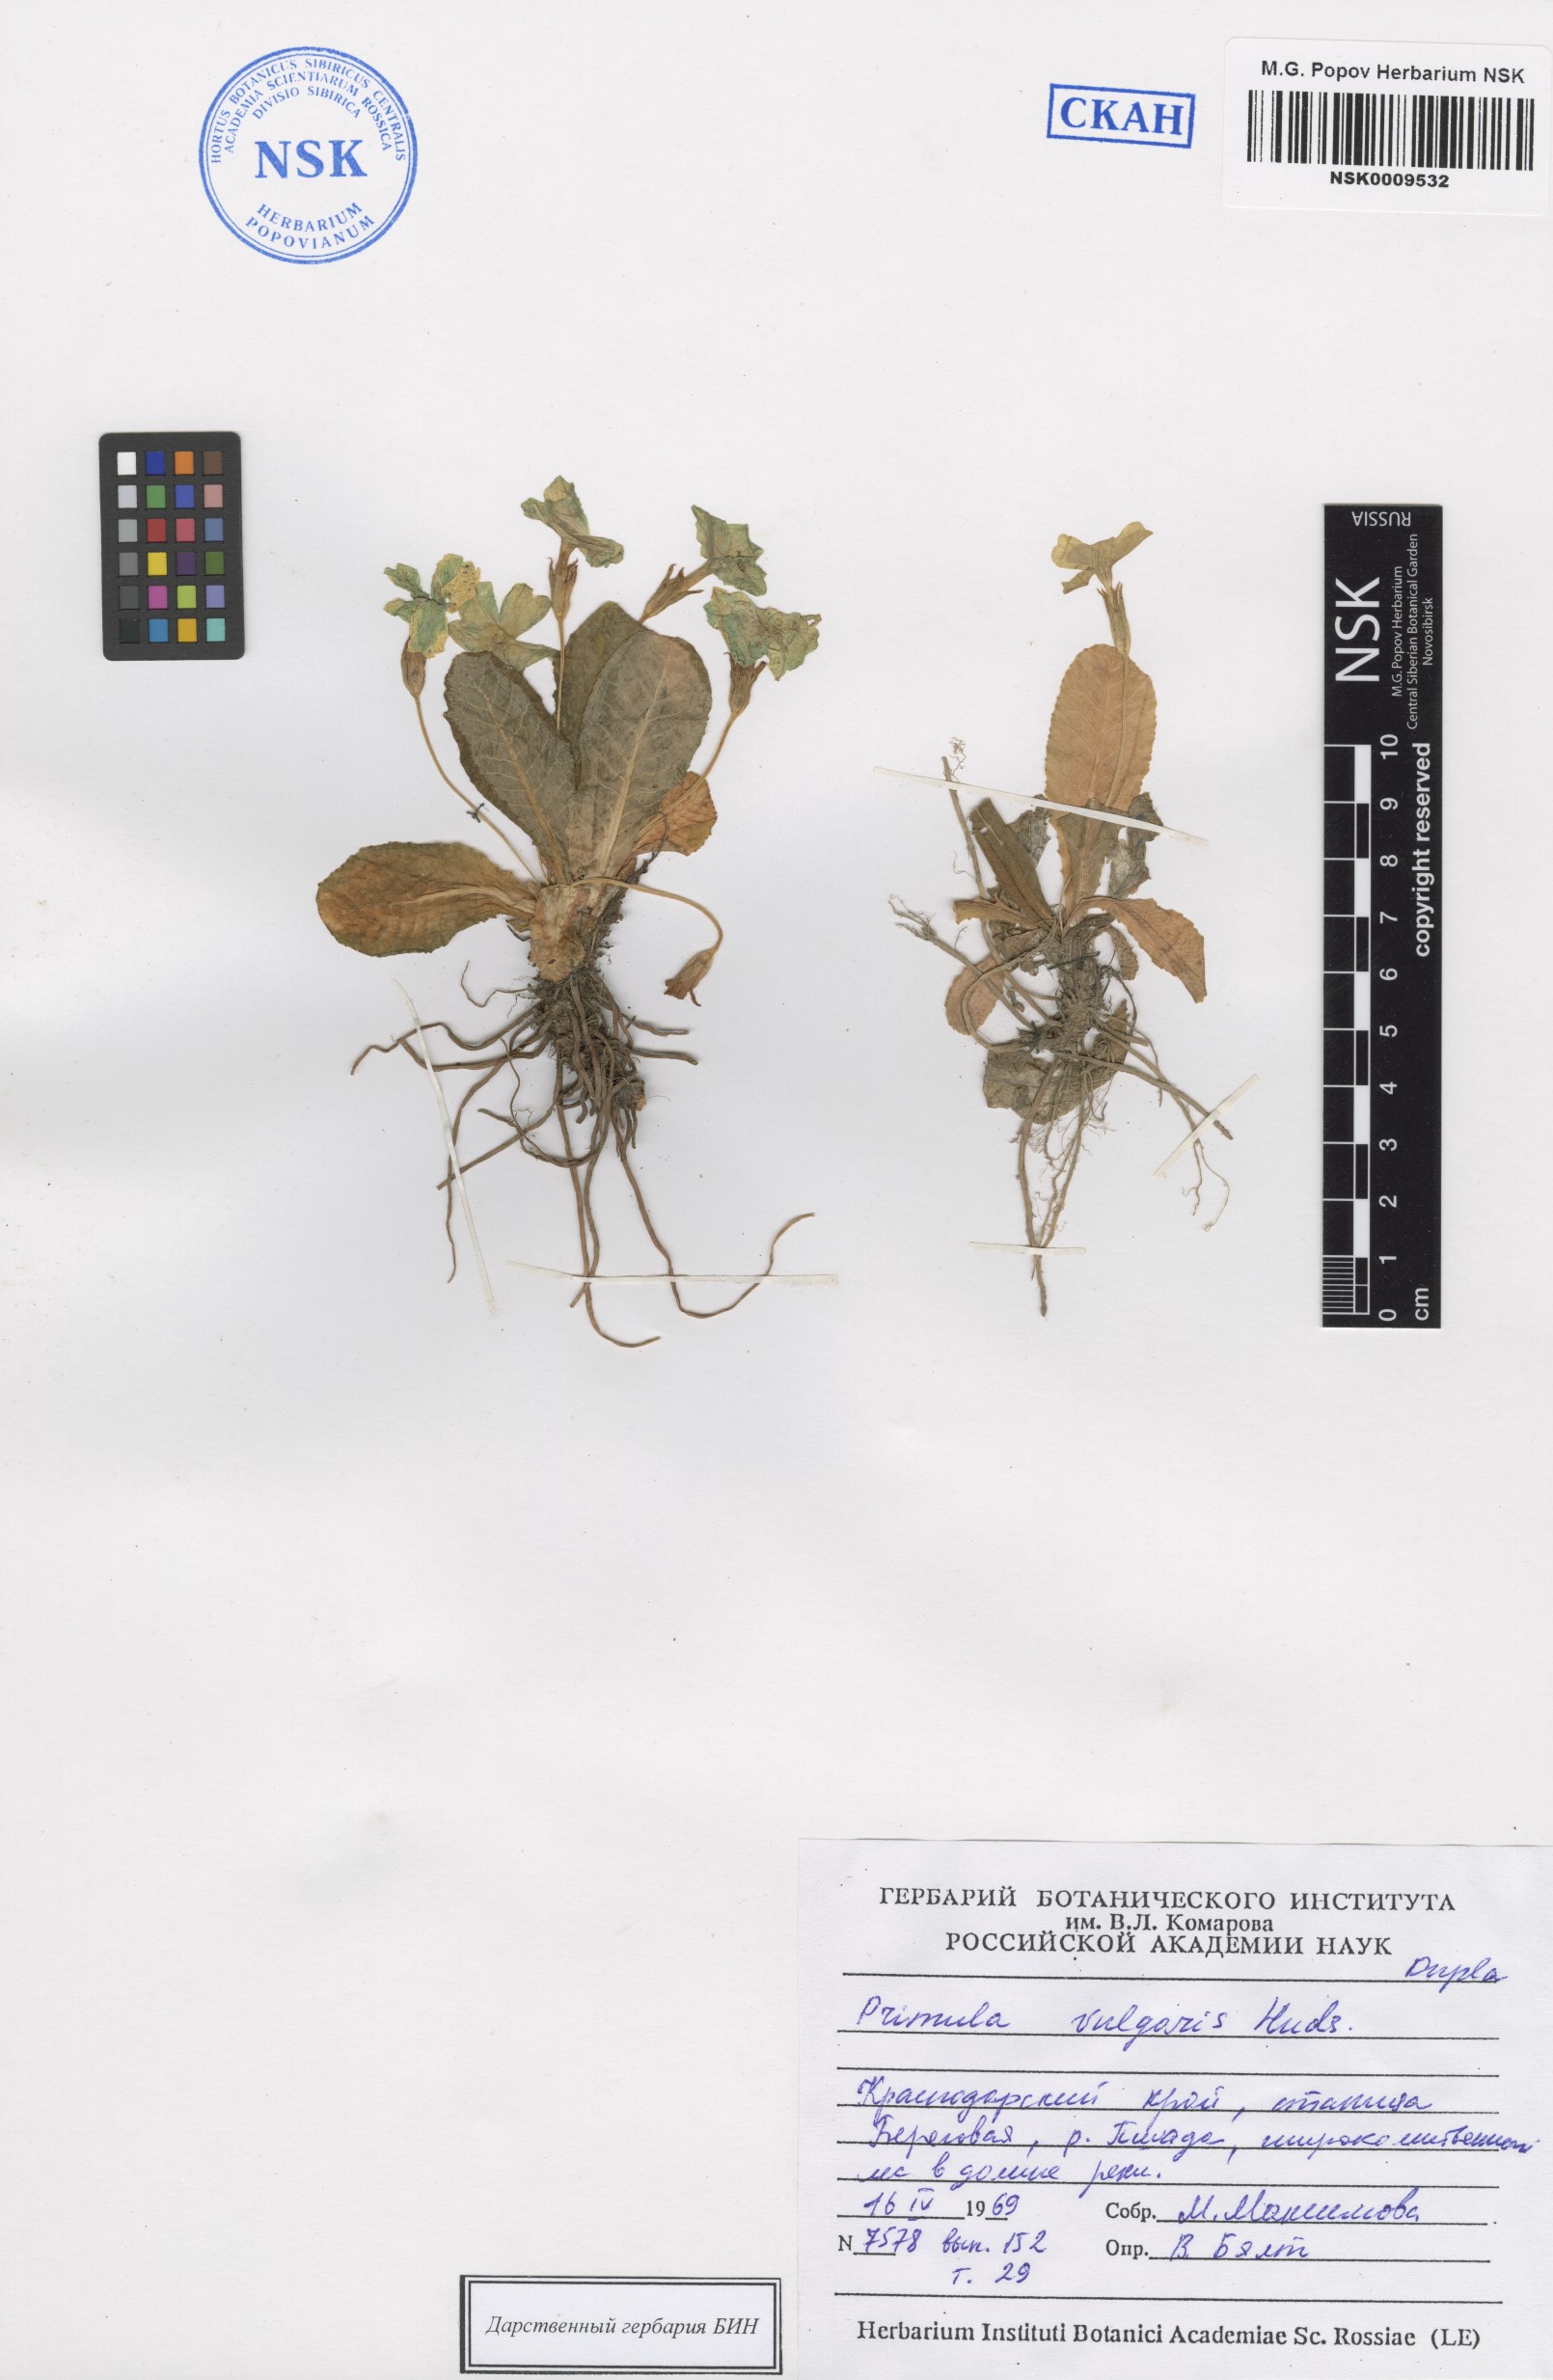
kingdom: Plantae
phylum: Tracheophyta
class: Magnoliopsida
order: Ericales
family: Primulaceae
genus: Primula
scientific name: Primula vulgaris
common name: Primrose
